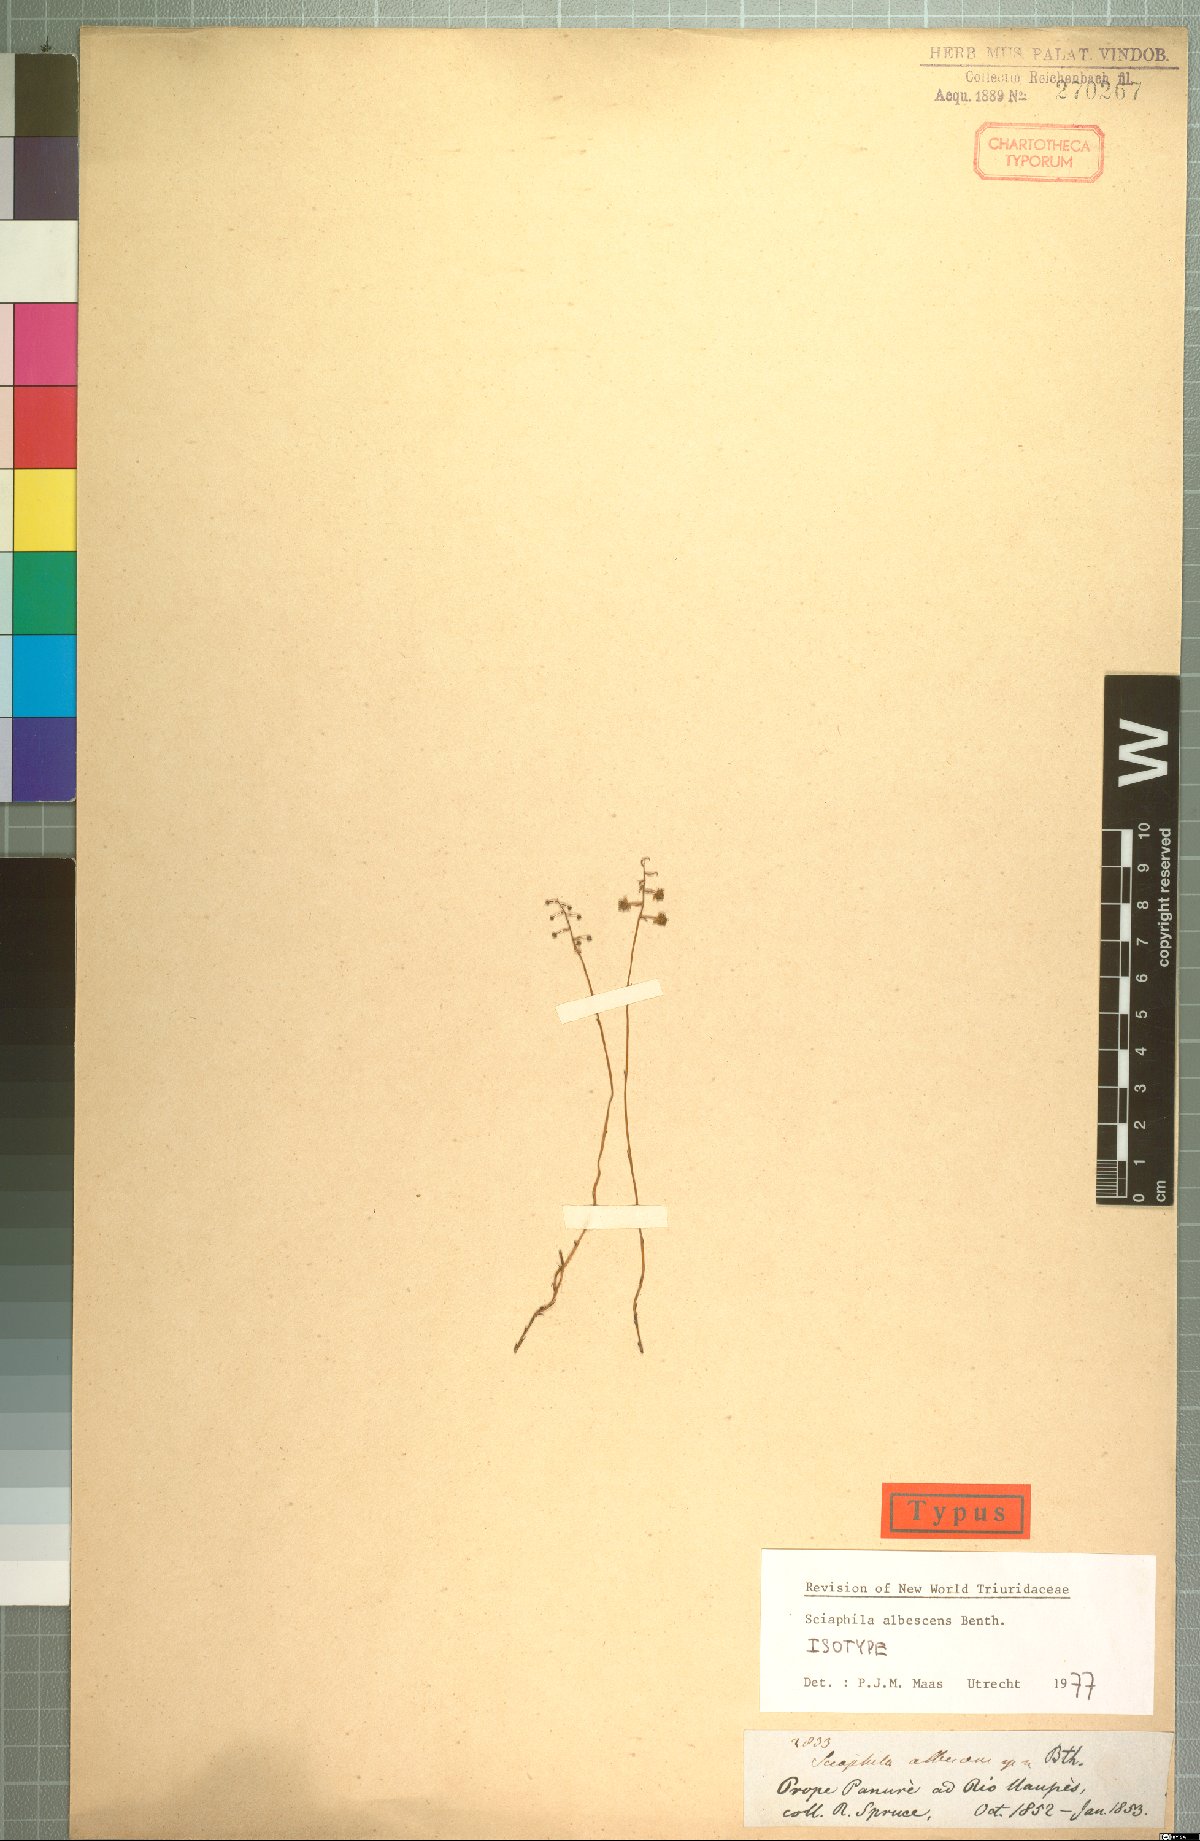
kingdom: Plantae
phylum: Tracheophyta
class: Liliopsida
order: Pandanales
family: Triuridaceae
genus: Sciaphila
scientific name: Sciaphila albescens
